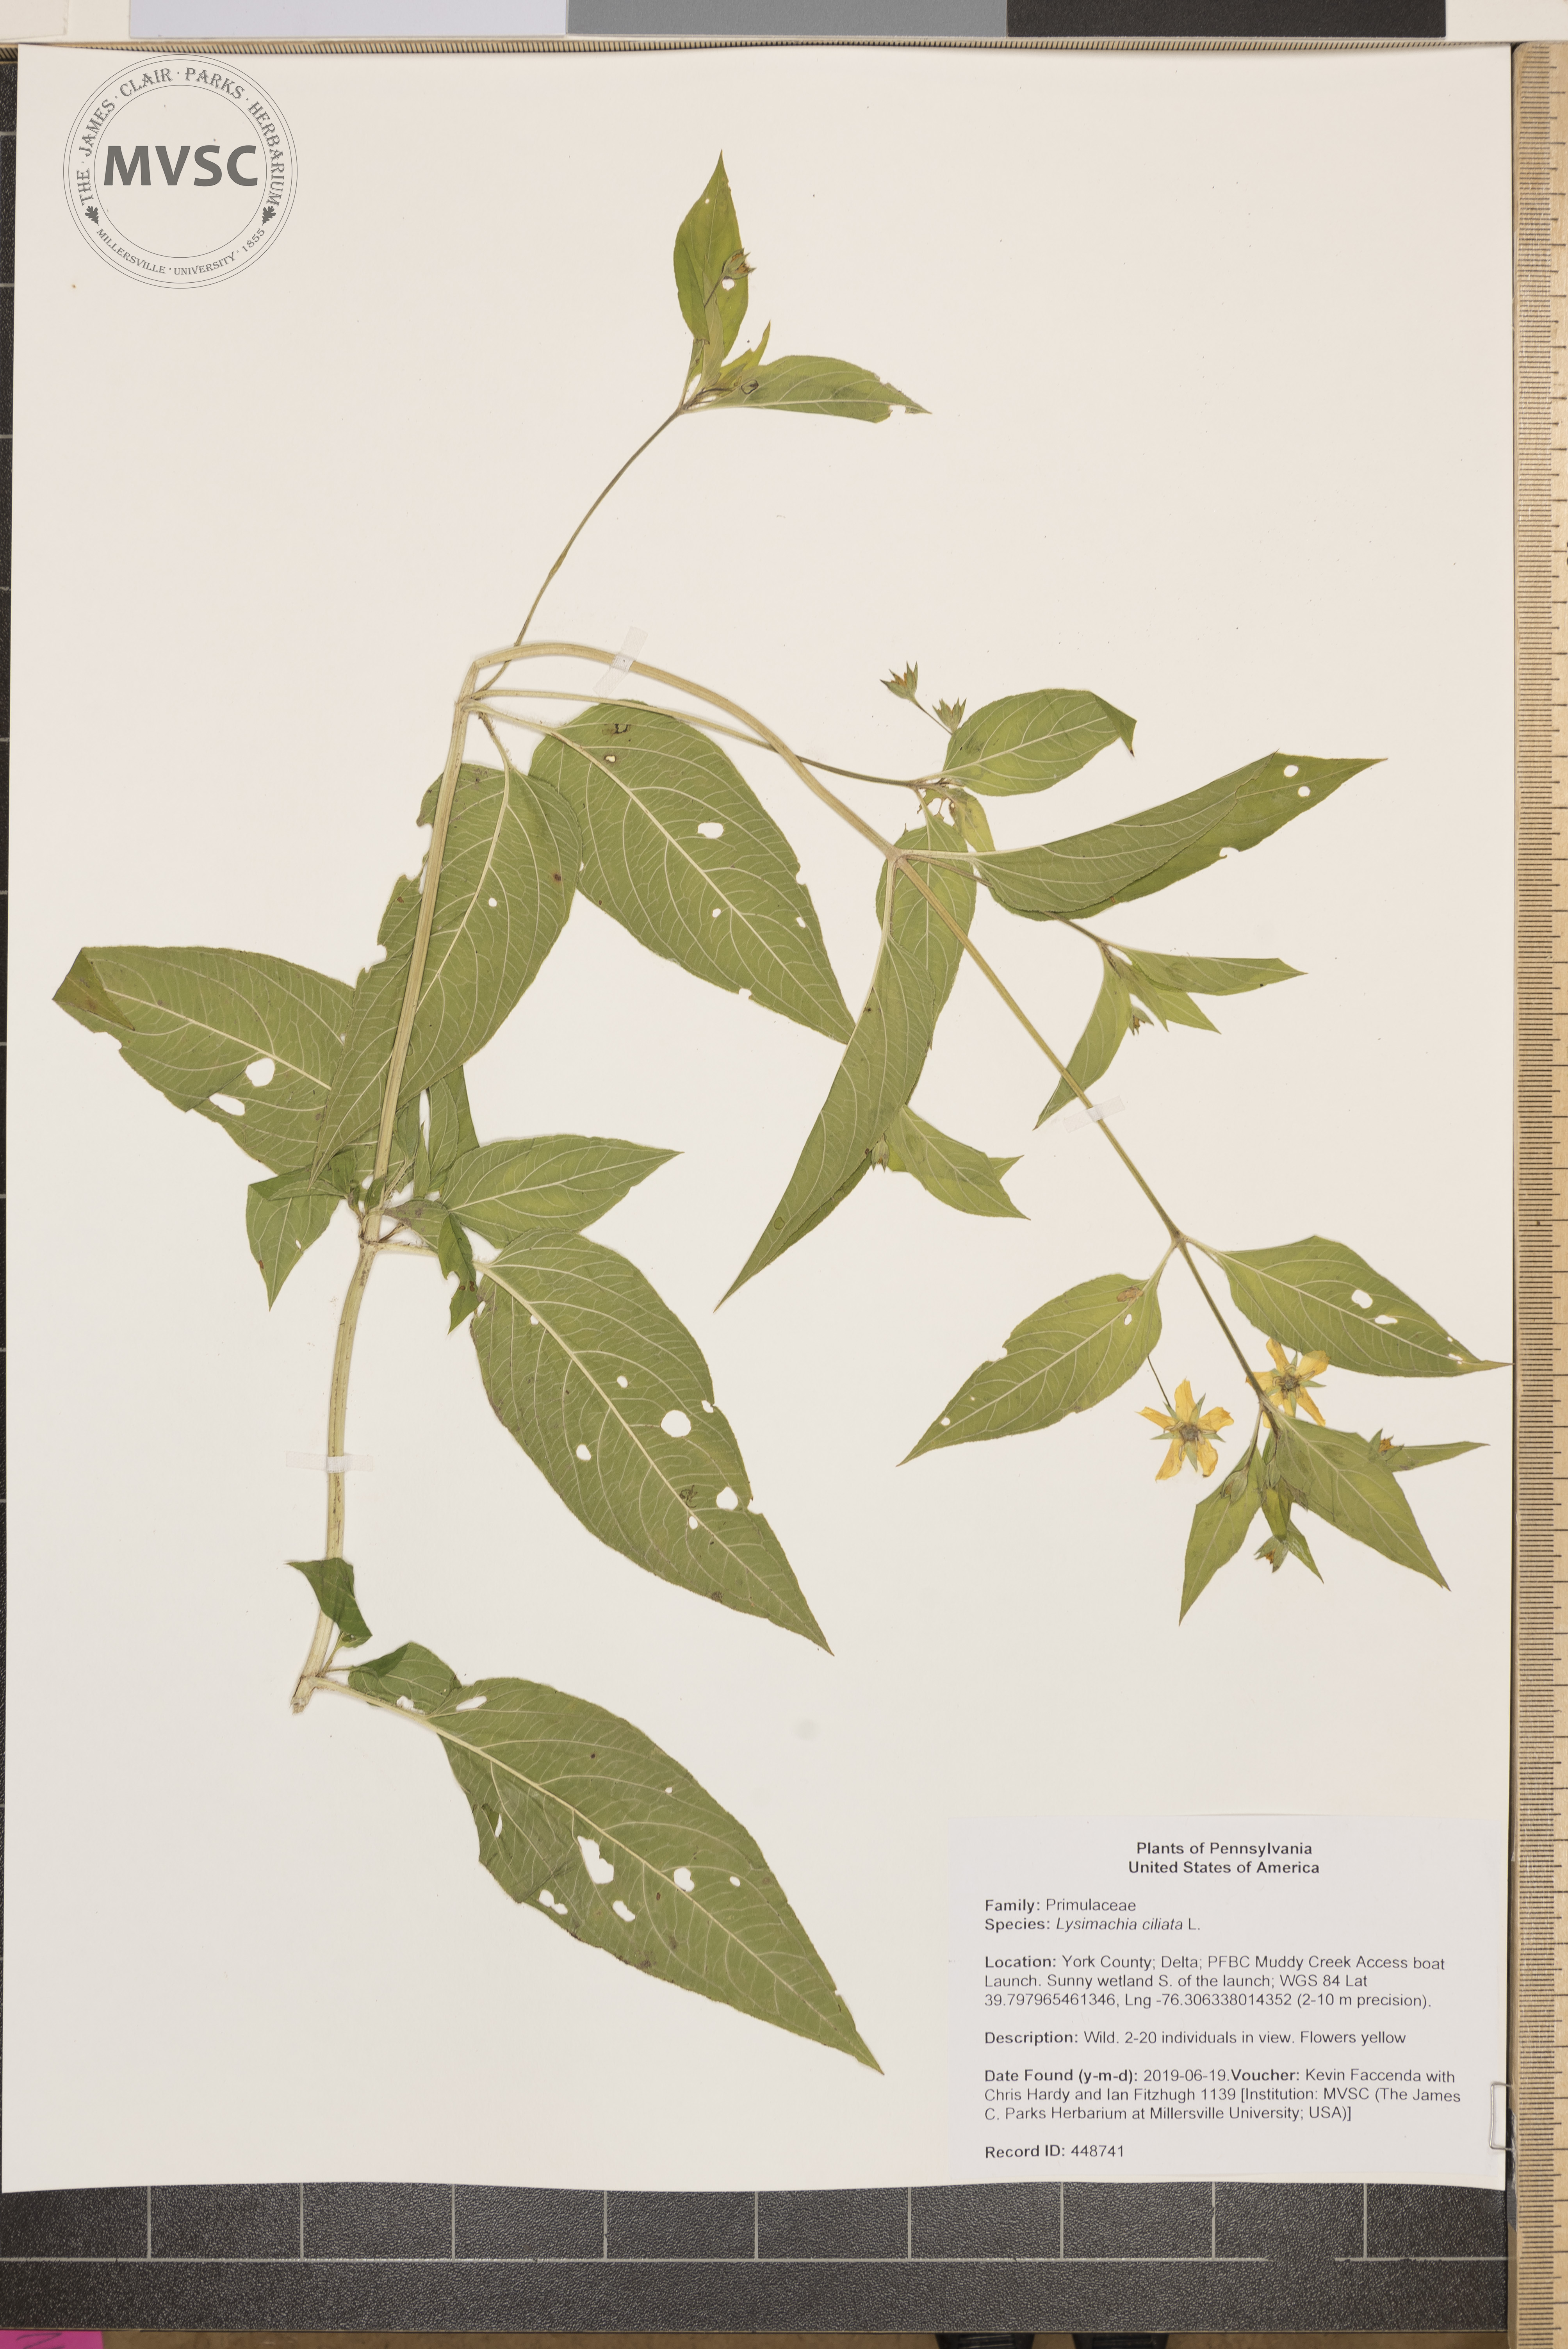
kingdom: Plantae
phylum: Tracheophyta
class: Magnoliopsida
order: Ericales
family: Primulaceae
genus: Lysimachia
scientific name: Lysimachia ciliata
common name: Fringed loosestrife
